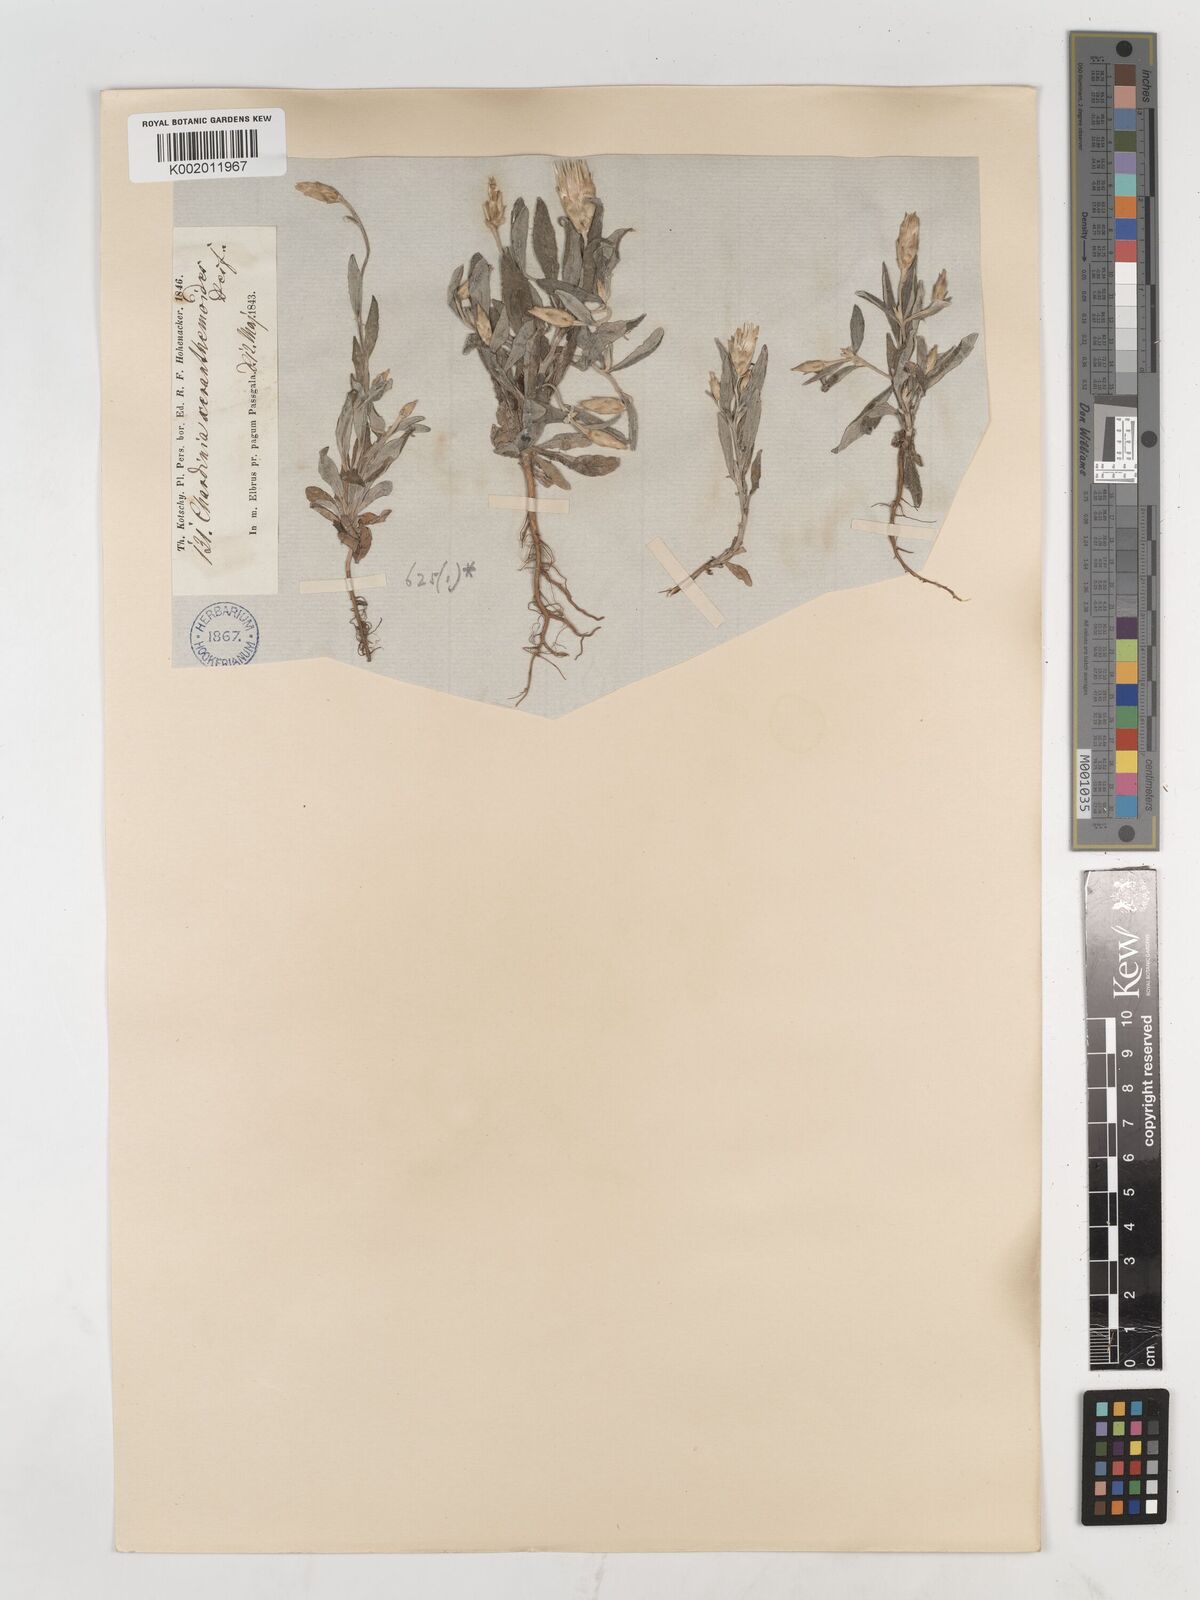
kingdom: Plantae
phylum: Tracheophyta
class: Magnoliopsida
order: Asterales
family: Asteraceae
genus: Chardinia
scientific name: Chardinia orientalis
